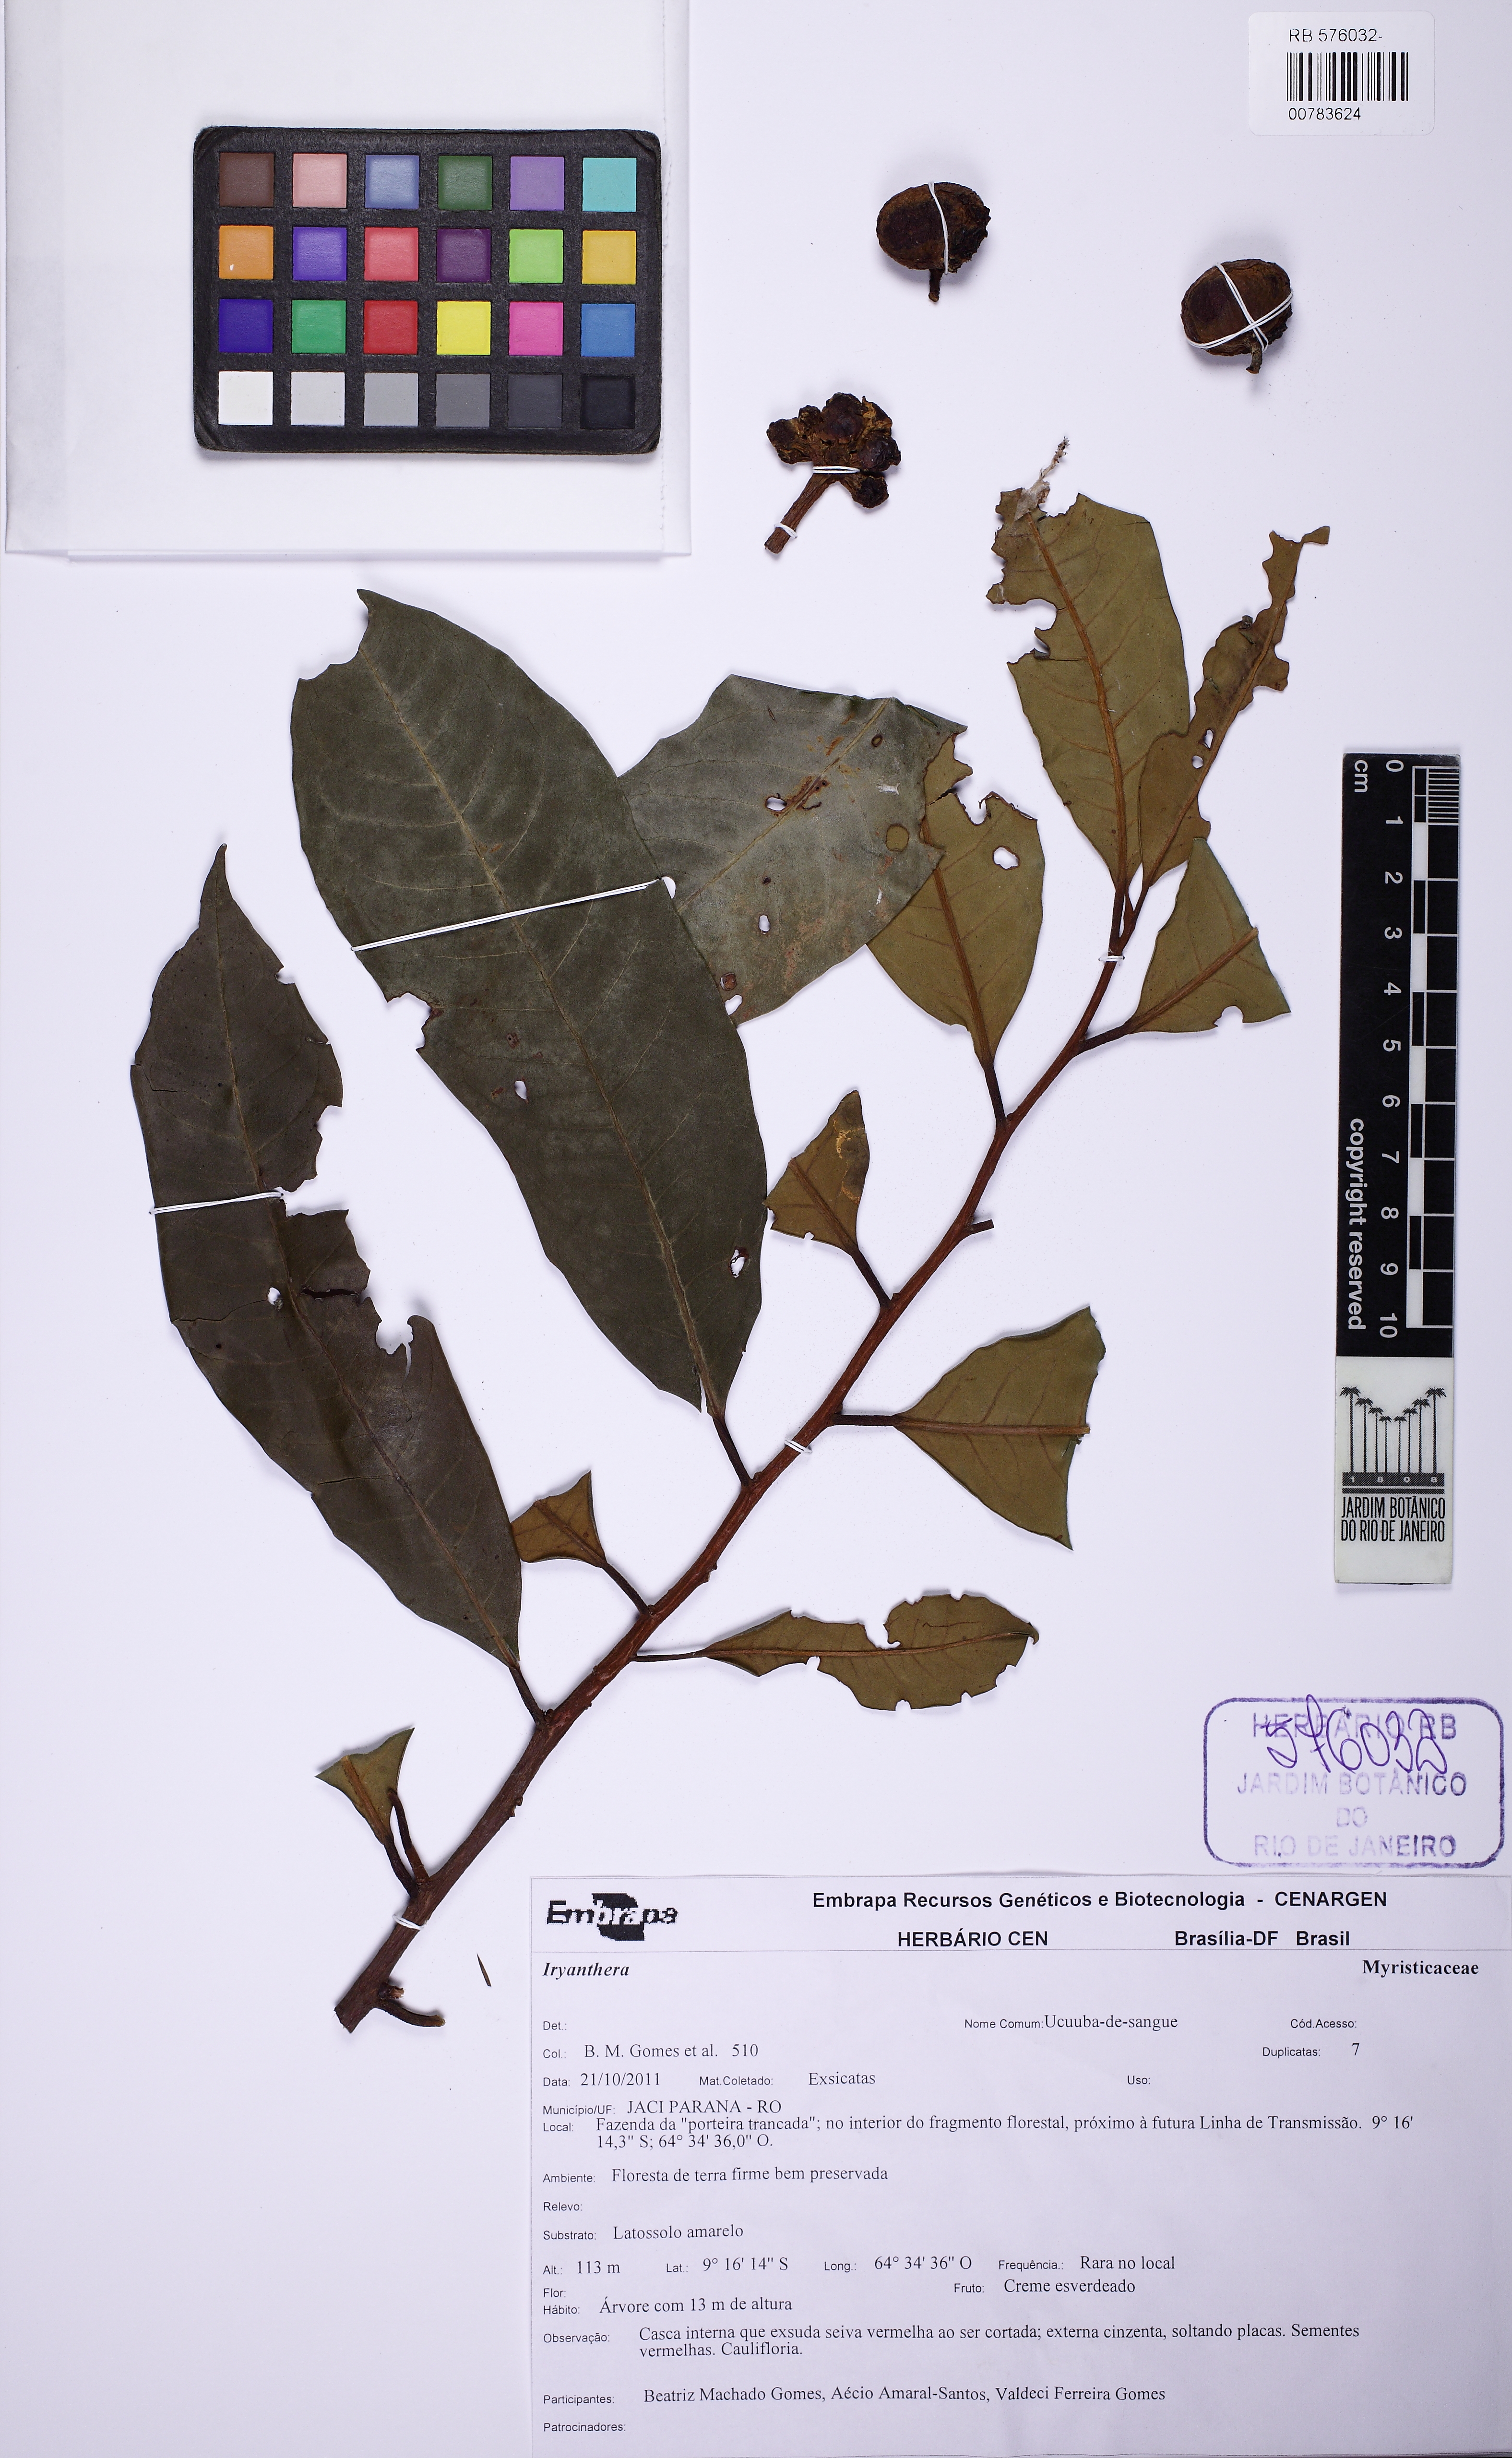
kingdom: Plantae
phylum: Tracheophyta
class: Magnoliopsida
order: Magnoliales
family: Myristicaceae
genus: Iryanthera
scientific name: Iryanthera juruensis
